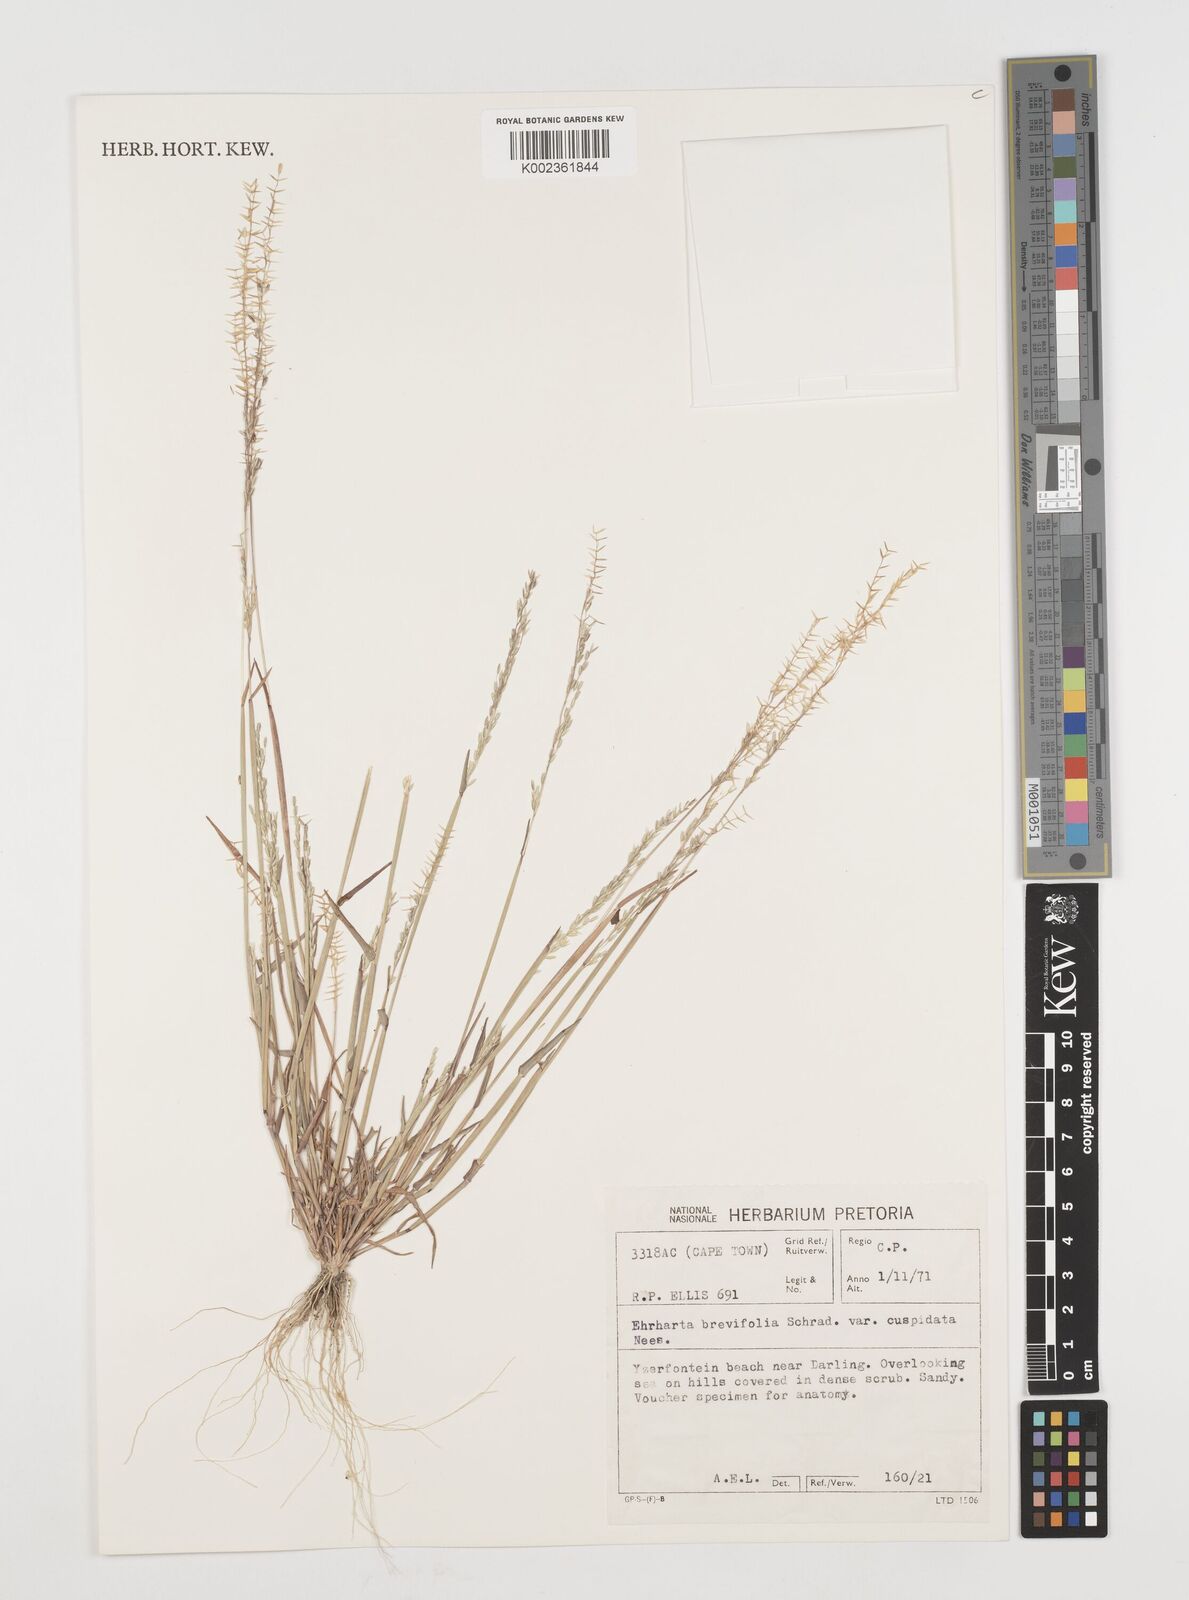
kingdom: Plantae
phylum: Tracheophyta
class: Liliopsida
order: Poales
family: Poaceae
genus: Ehrharta
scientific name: Ehrharta brevifolia
